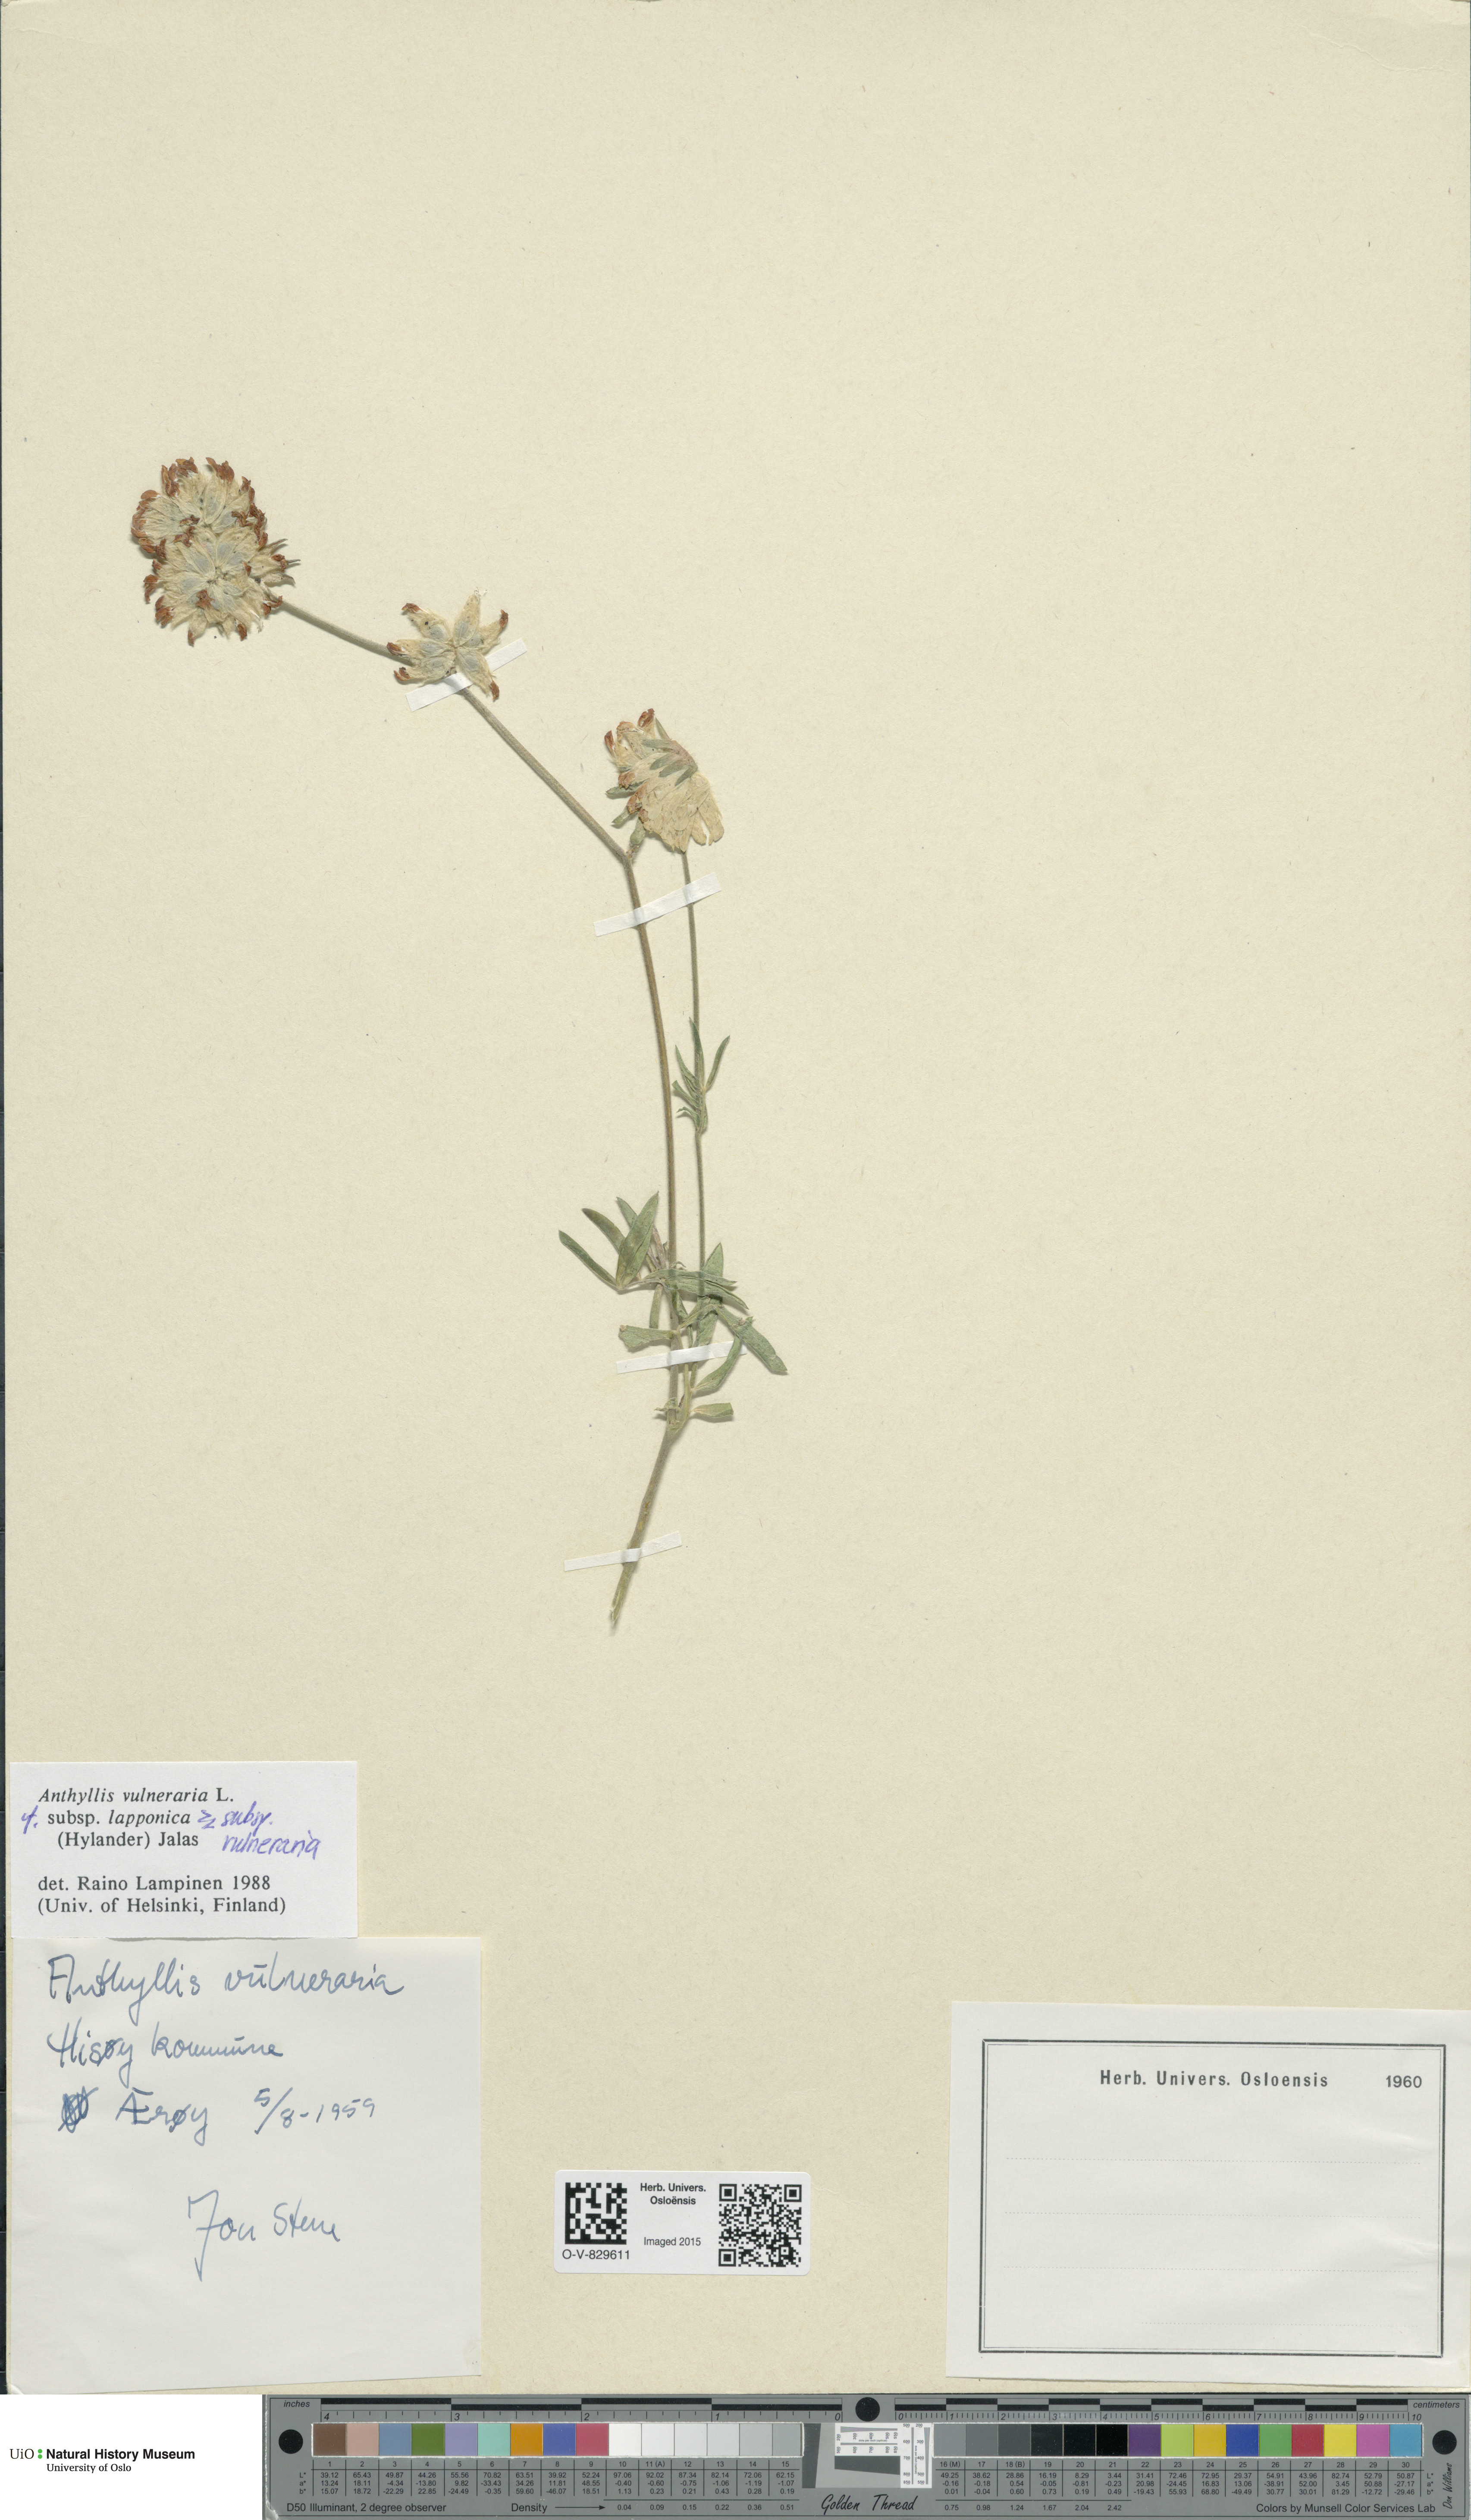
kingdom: Plantae
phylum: Tracheophyta
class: Magnoliopsida
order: Fabales
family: Fabaceae
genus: Anthyllis
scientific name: Anthyllis
